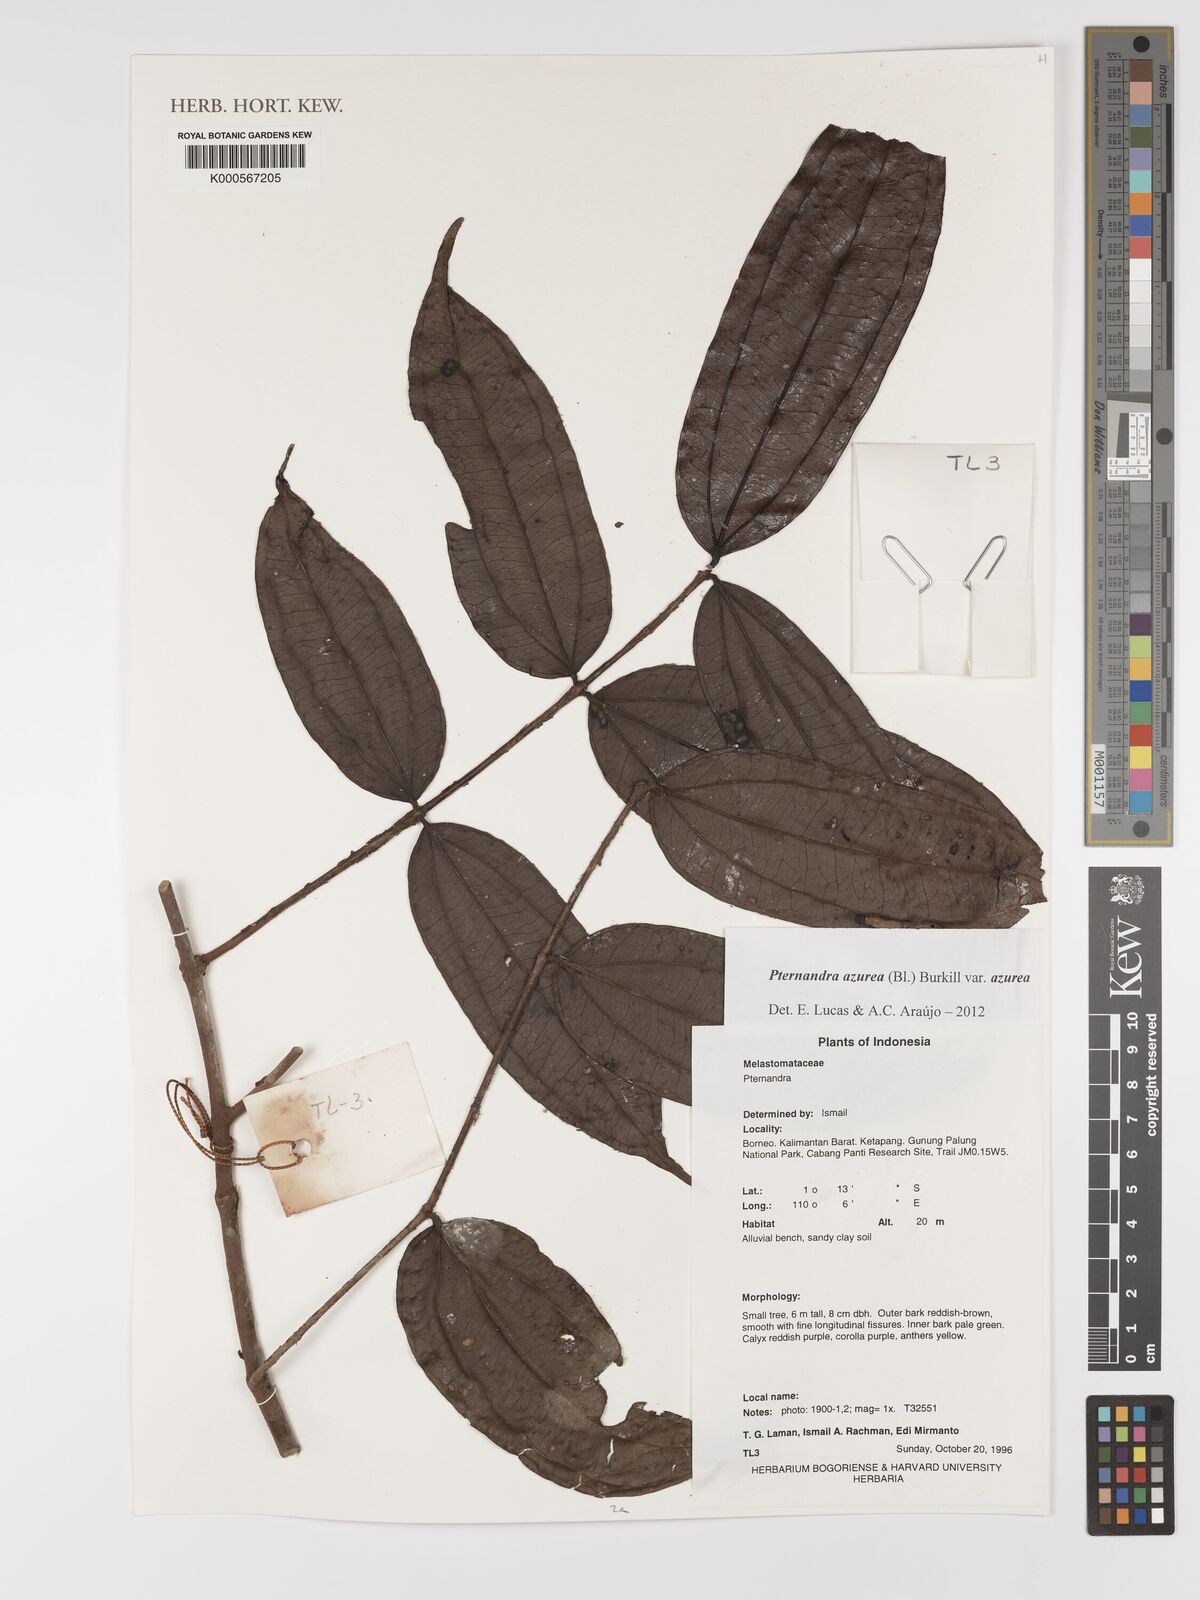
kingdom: Plantae
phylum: Tracheophyta
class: Magnoliopsida
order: Myrtales
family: Melastomataceae
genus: Pternandra
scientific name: Pternandra azurea
